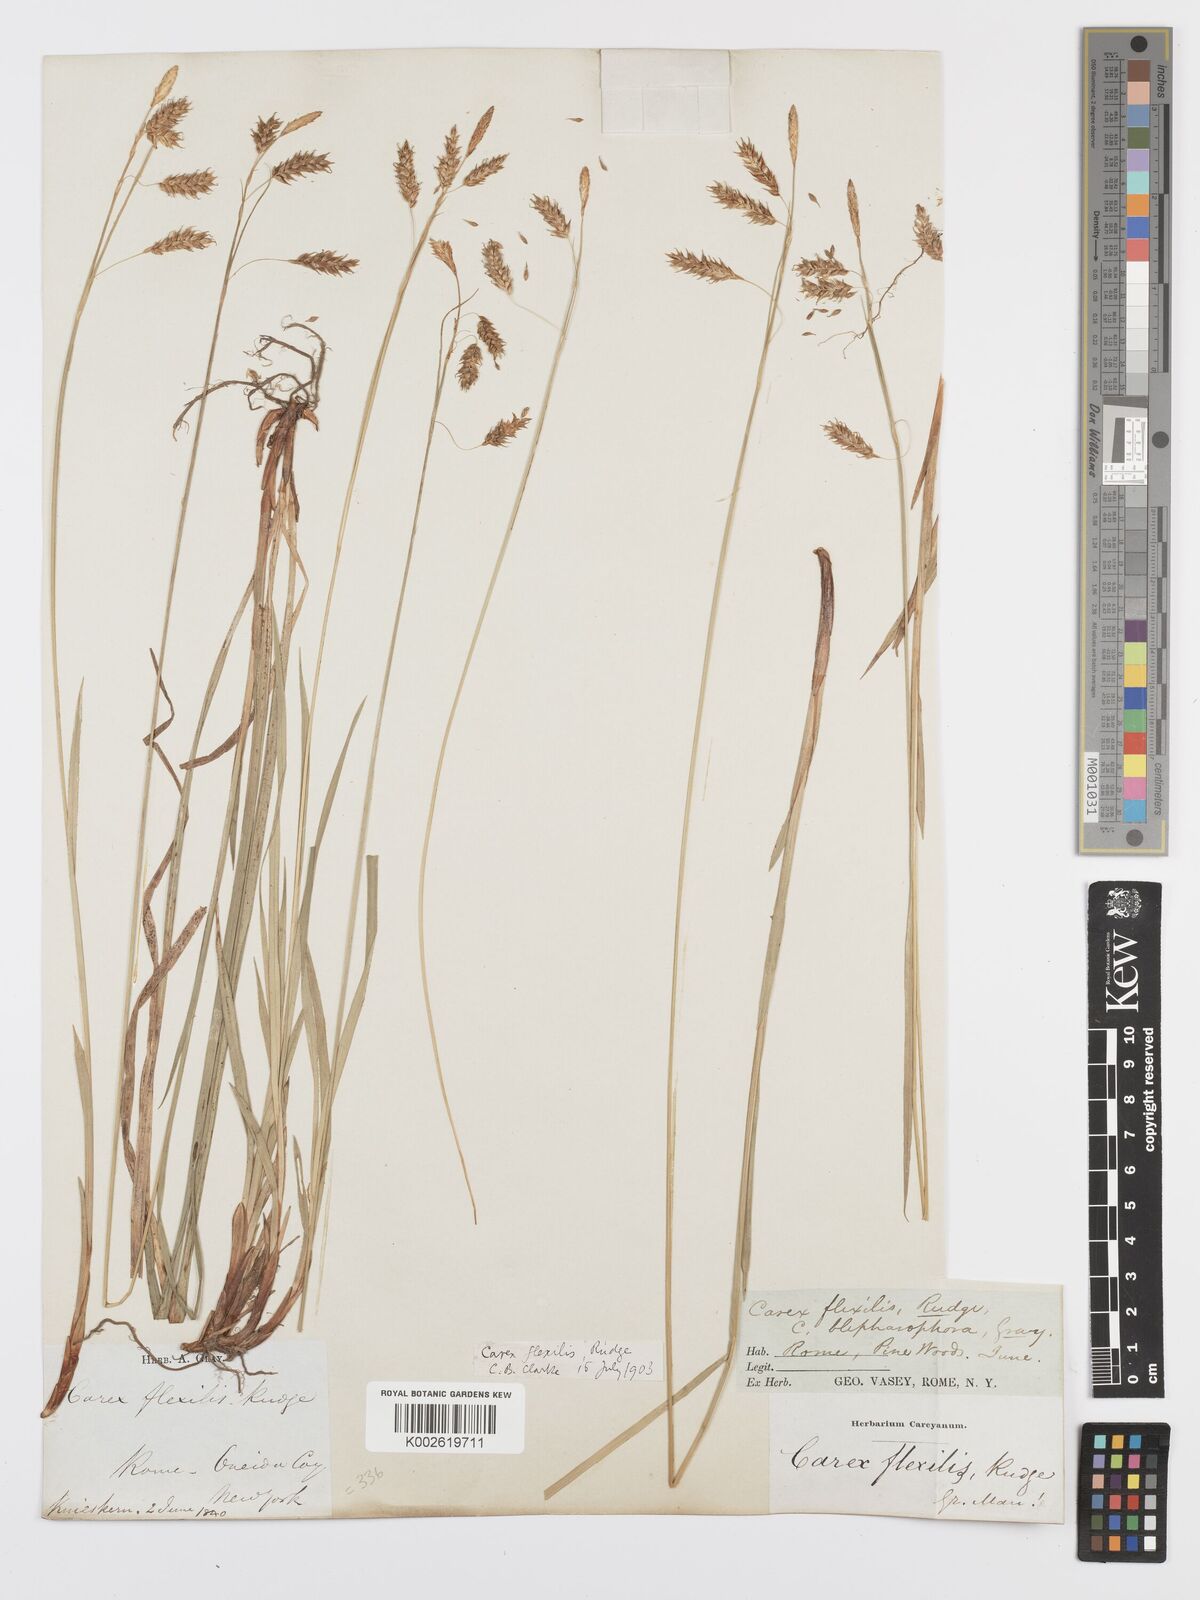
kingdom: Plantae
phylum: Tracheophyta
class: Liliopsida
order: Poales
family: Cyperaceae
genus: Carex
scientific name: Carex castanea
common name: Chestnut sedge
